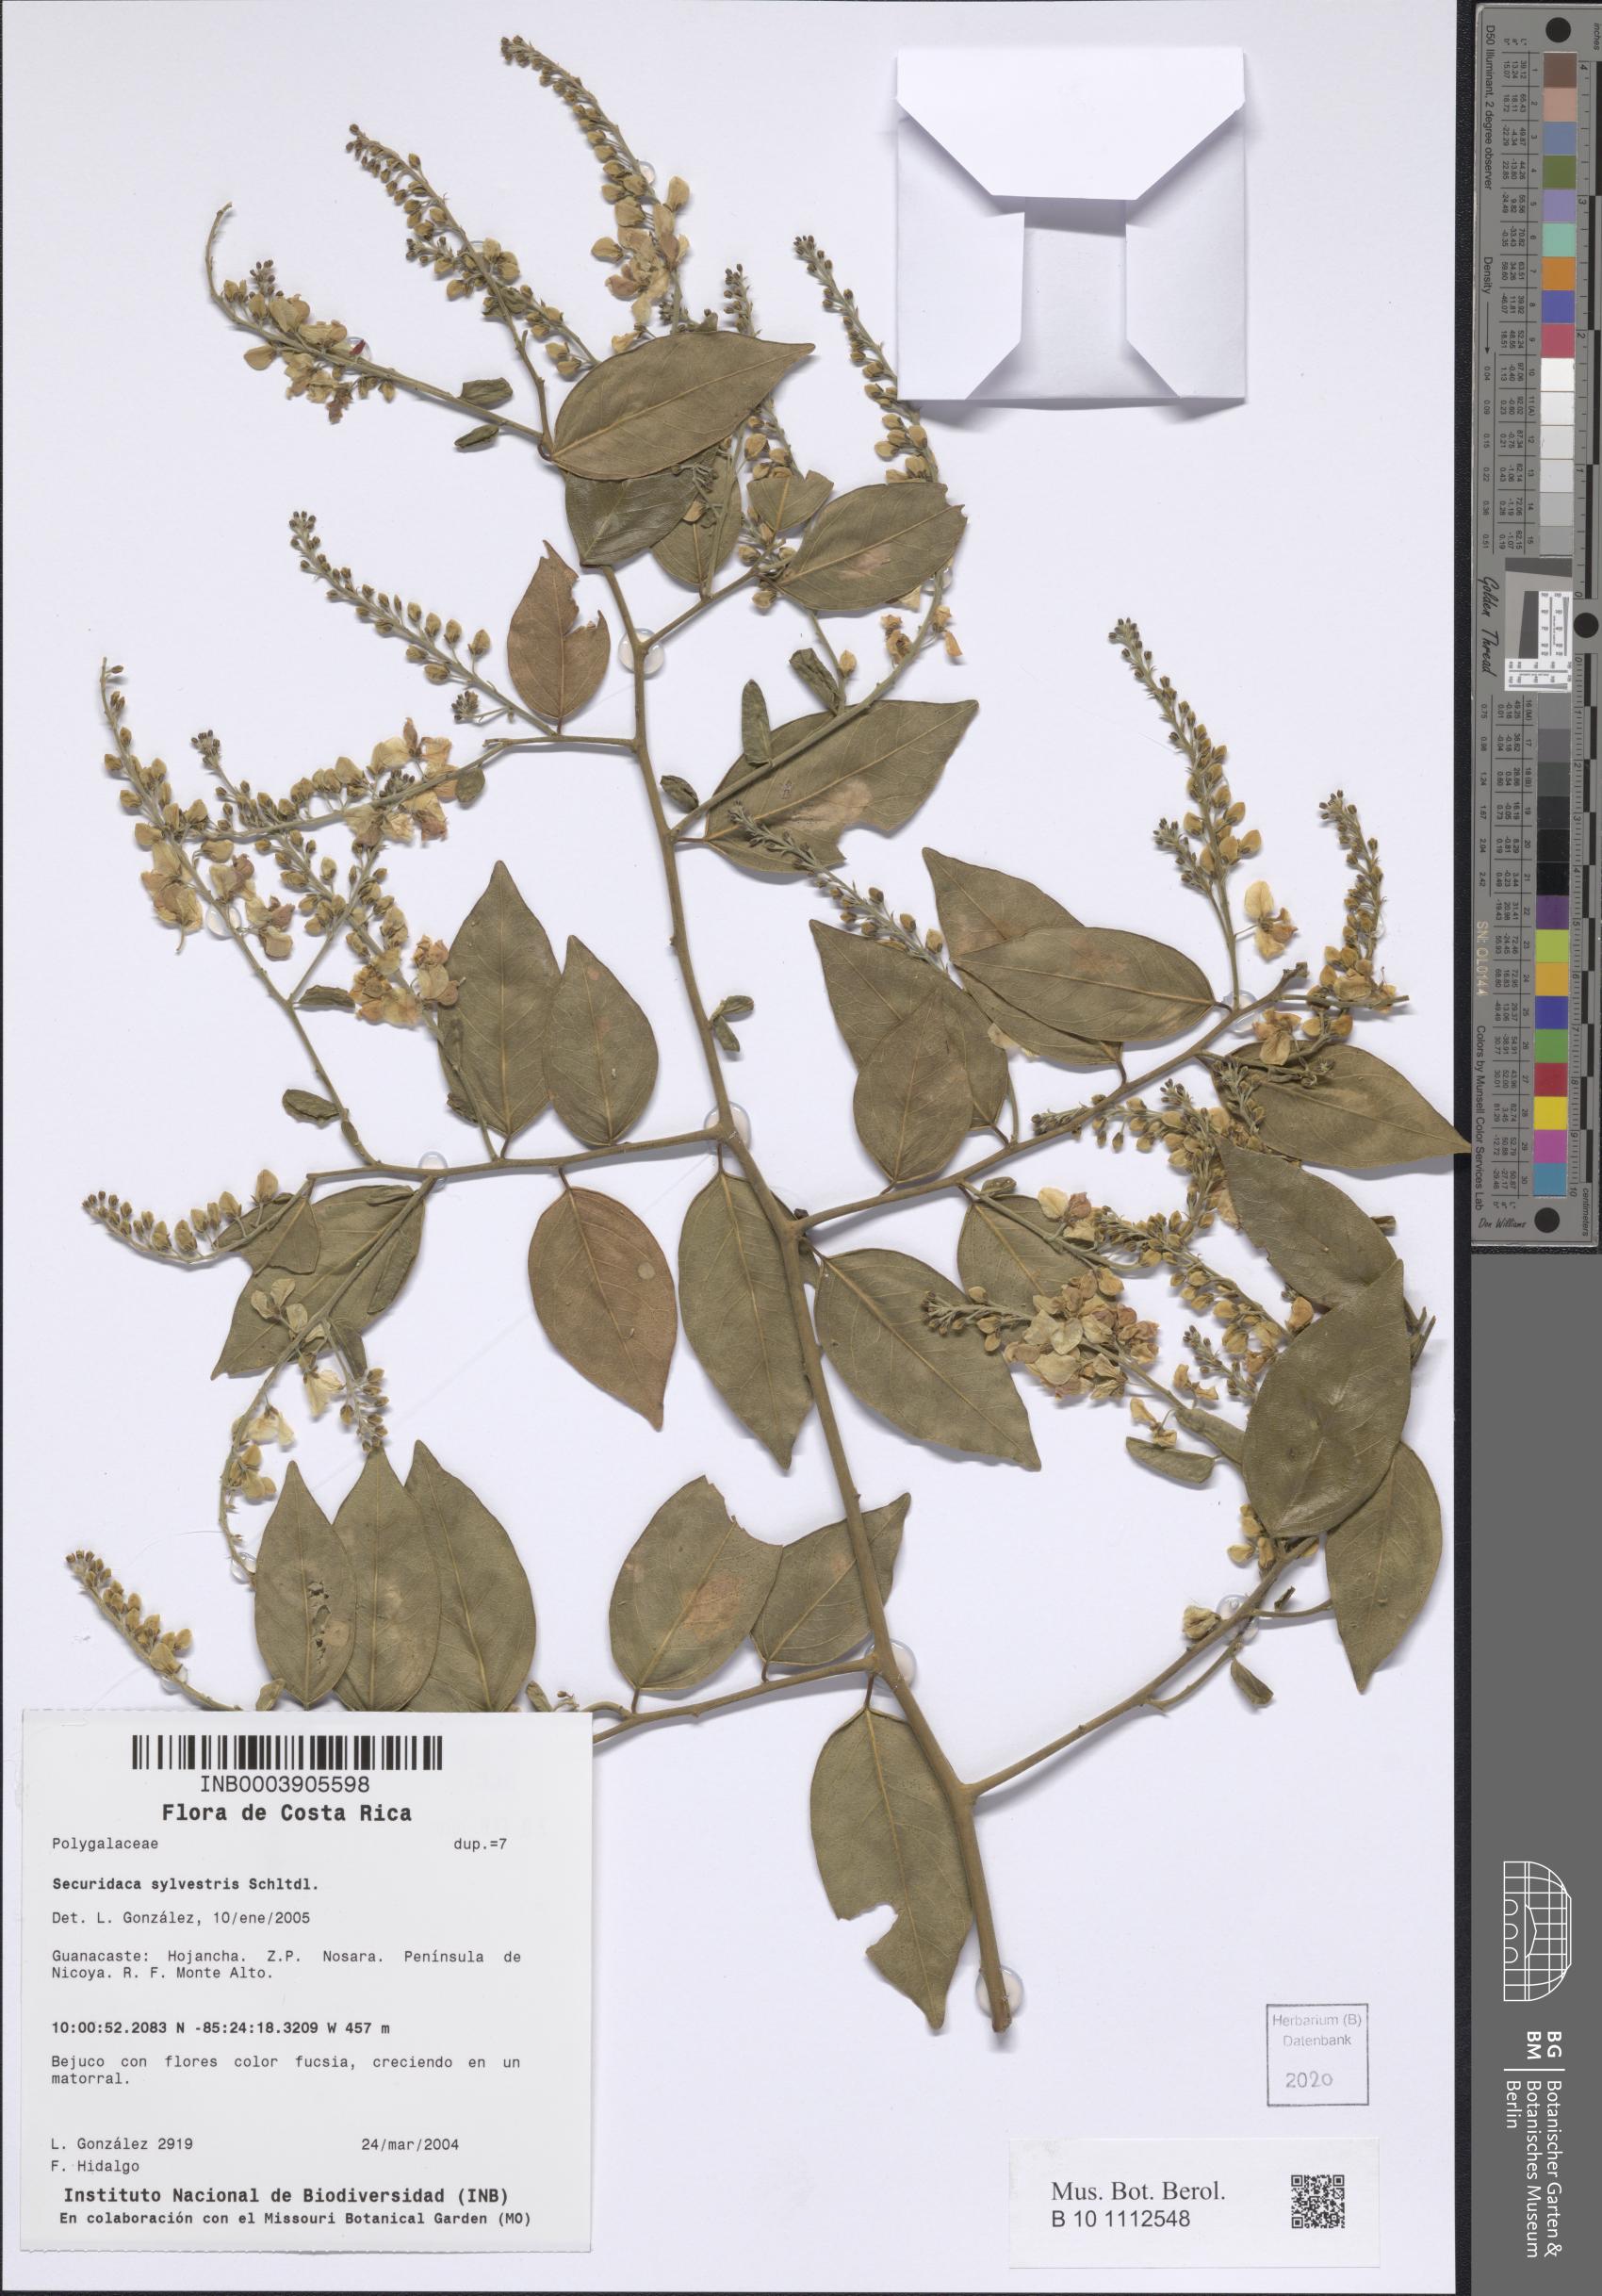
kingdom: Plantae
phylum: Tracheophyta
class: Magnoliopsida
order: Fabales
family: Polygalaceae
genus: Securidaca
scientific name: Securidaca sylvestris
